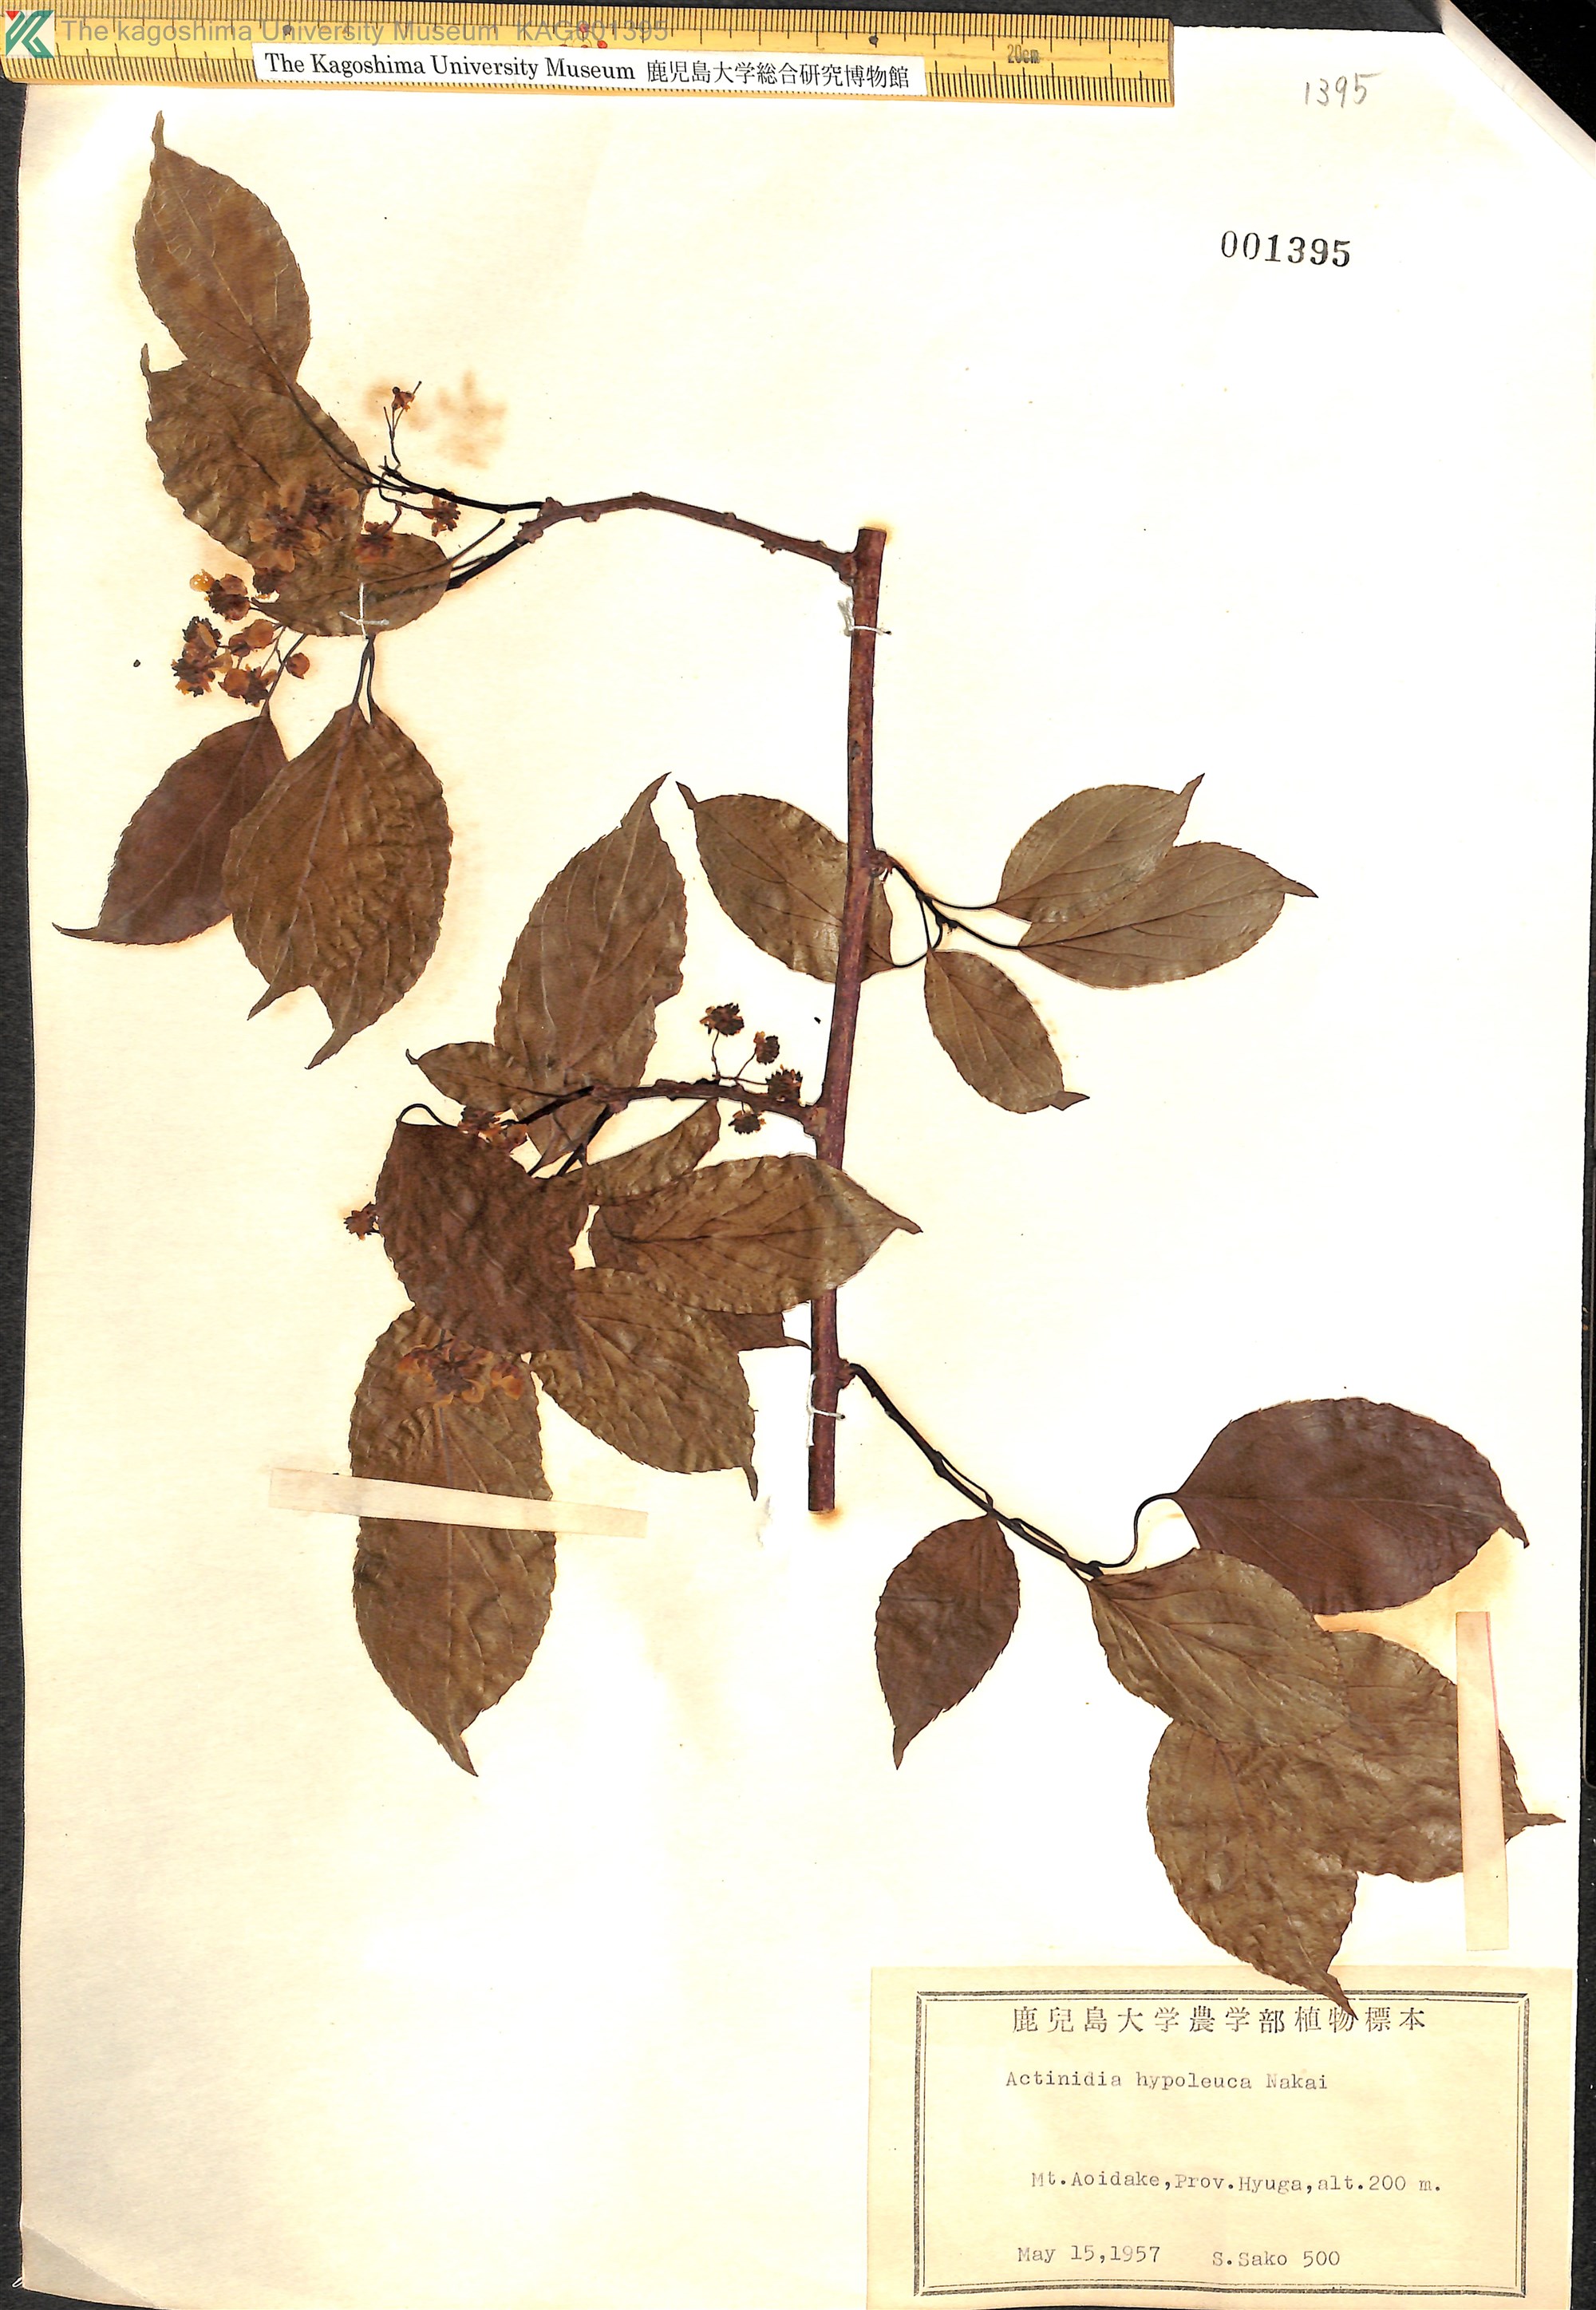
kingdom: Plantae
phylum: Tracheophyta
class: Magnoliopsida
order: Ericales
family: Actinidiaceae
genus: Actinidia
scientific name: Actinidia arguta
